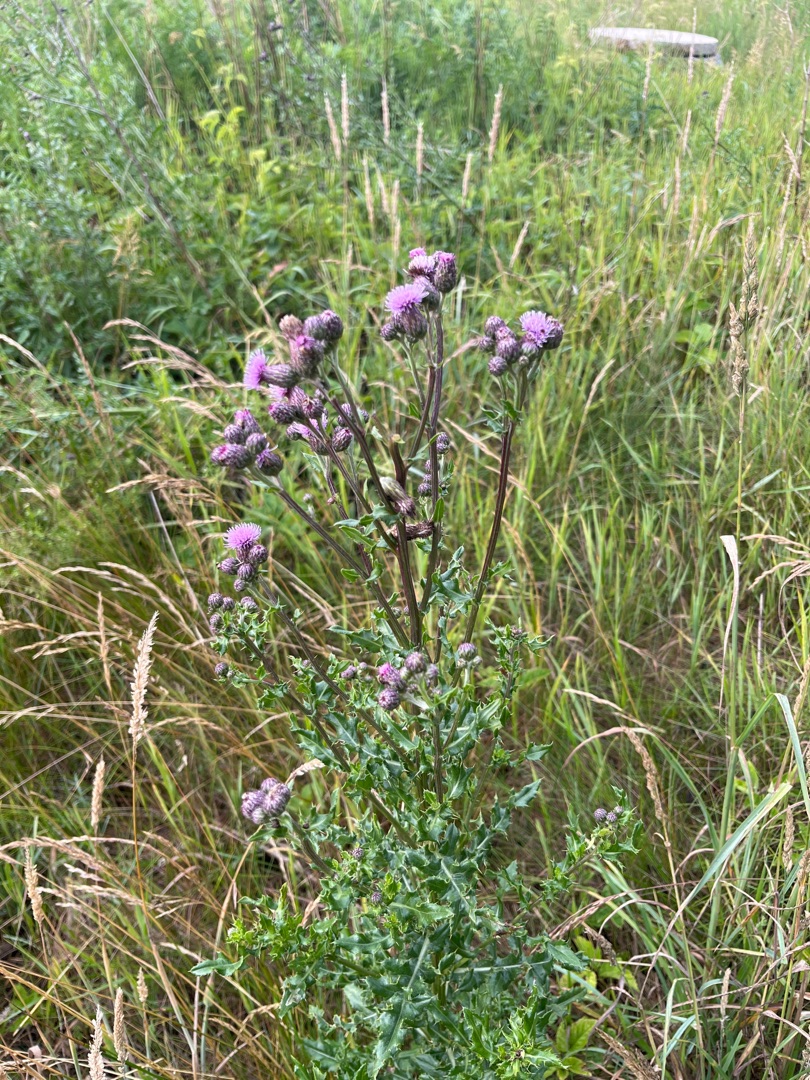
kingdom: Plantae
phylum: Tracheophyta
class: Magnoliopsida
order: Asterales
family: Asteraceae
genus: Cirsium
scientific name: Cirsium arvense
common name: Ager-tidsel
